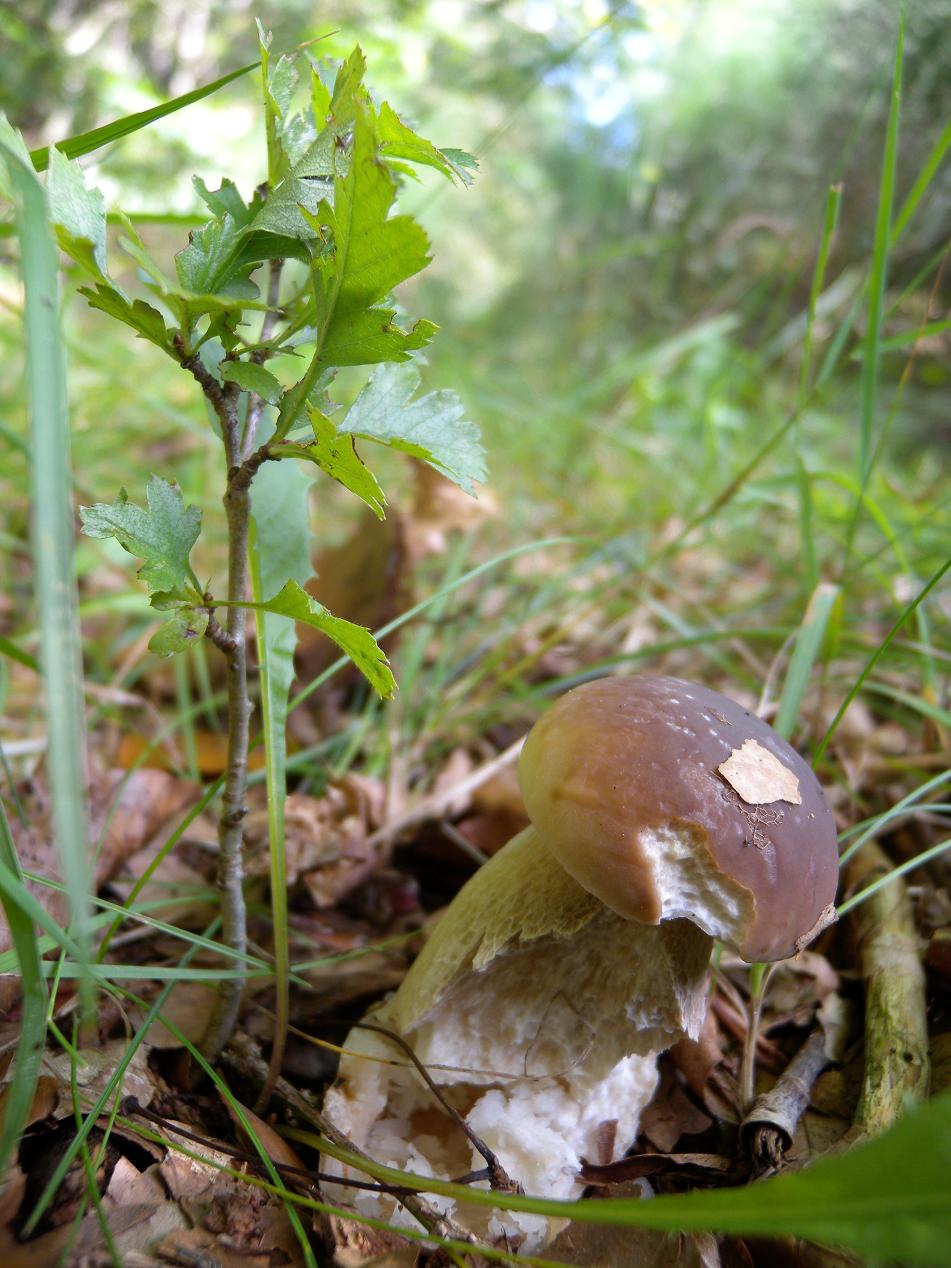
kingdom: Fungi
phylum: Basidiomycota
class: Agaricomycetes
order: Boletales
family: Boletaceae
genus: Boletus
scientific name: Boletus edulis
